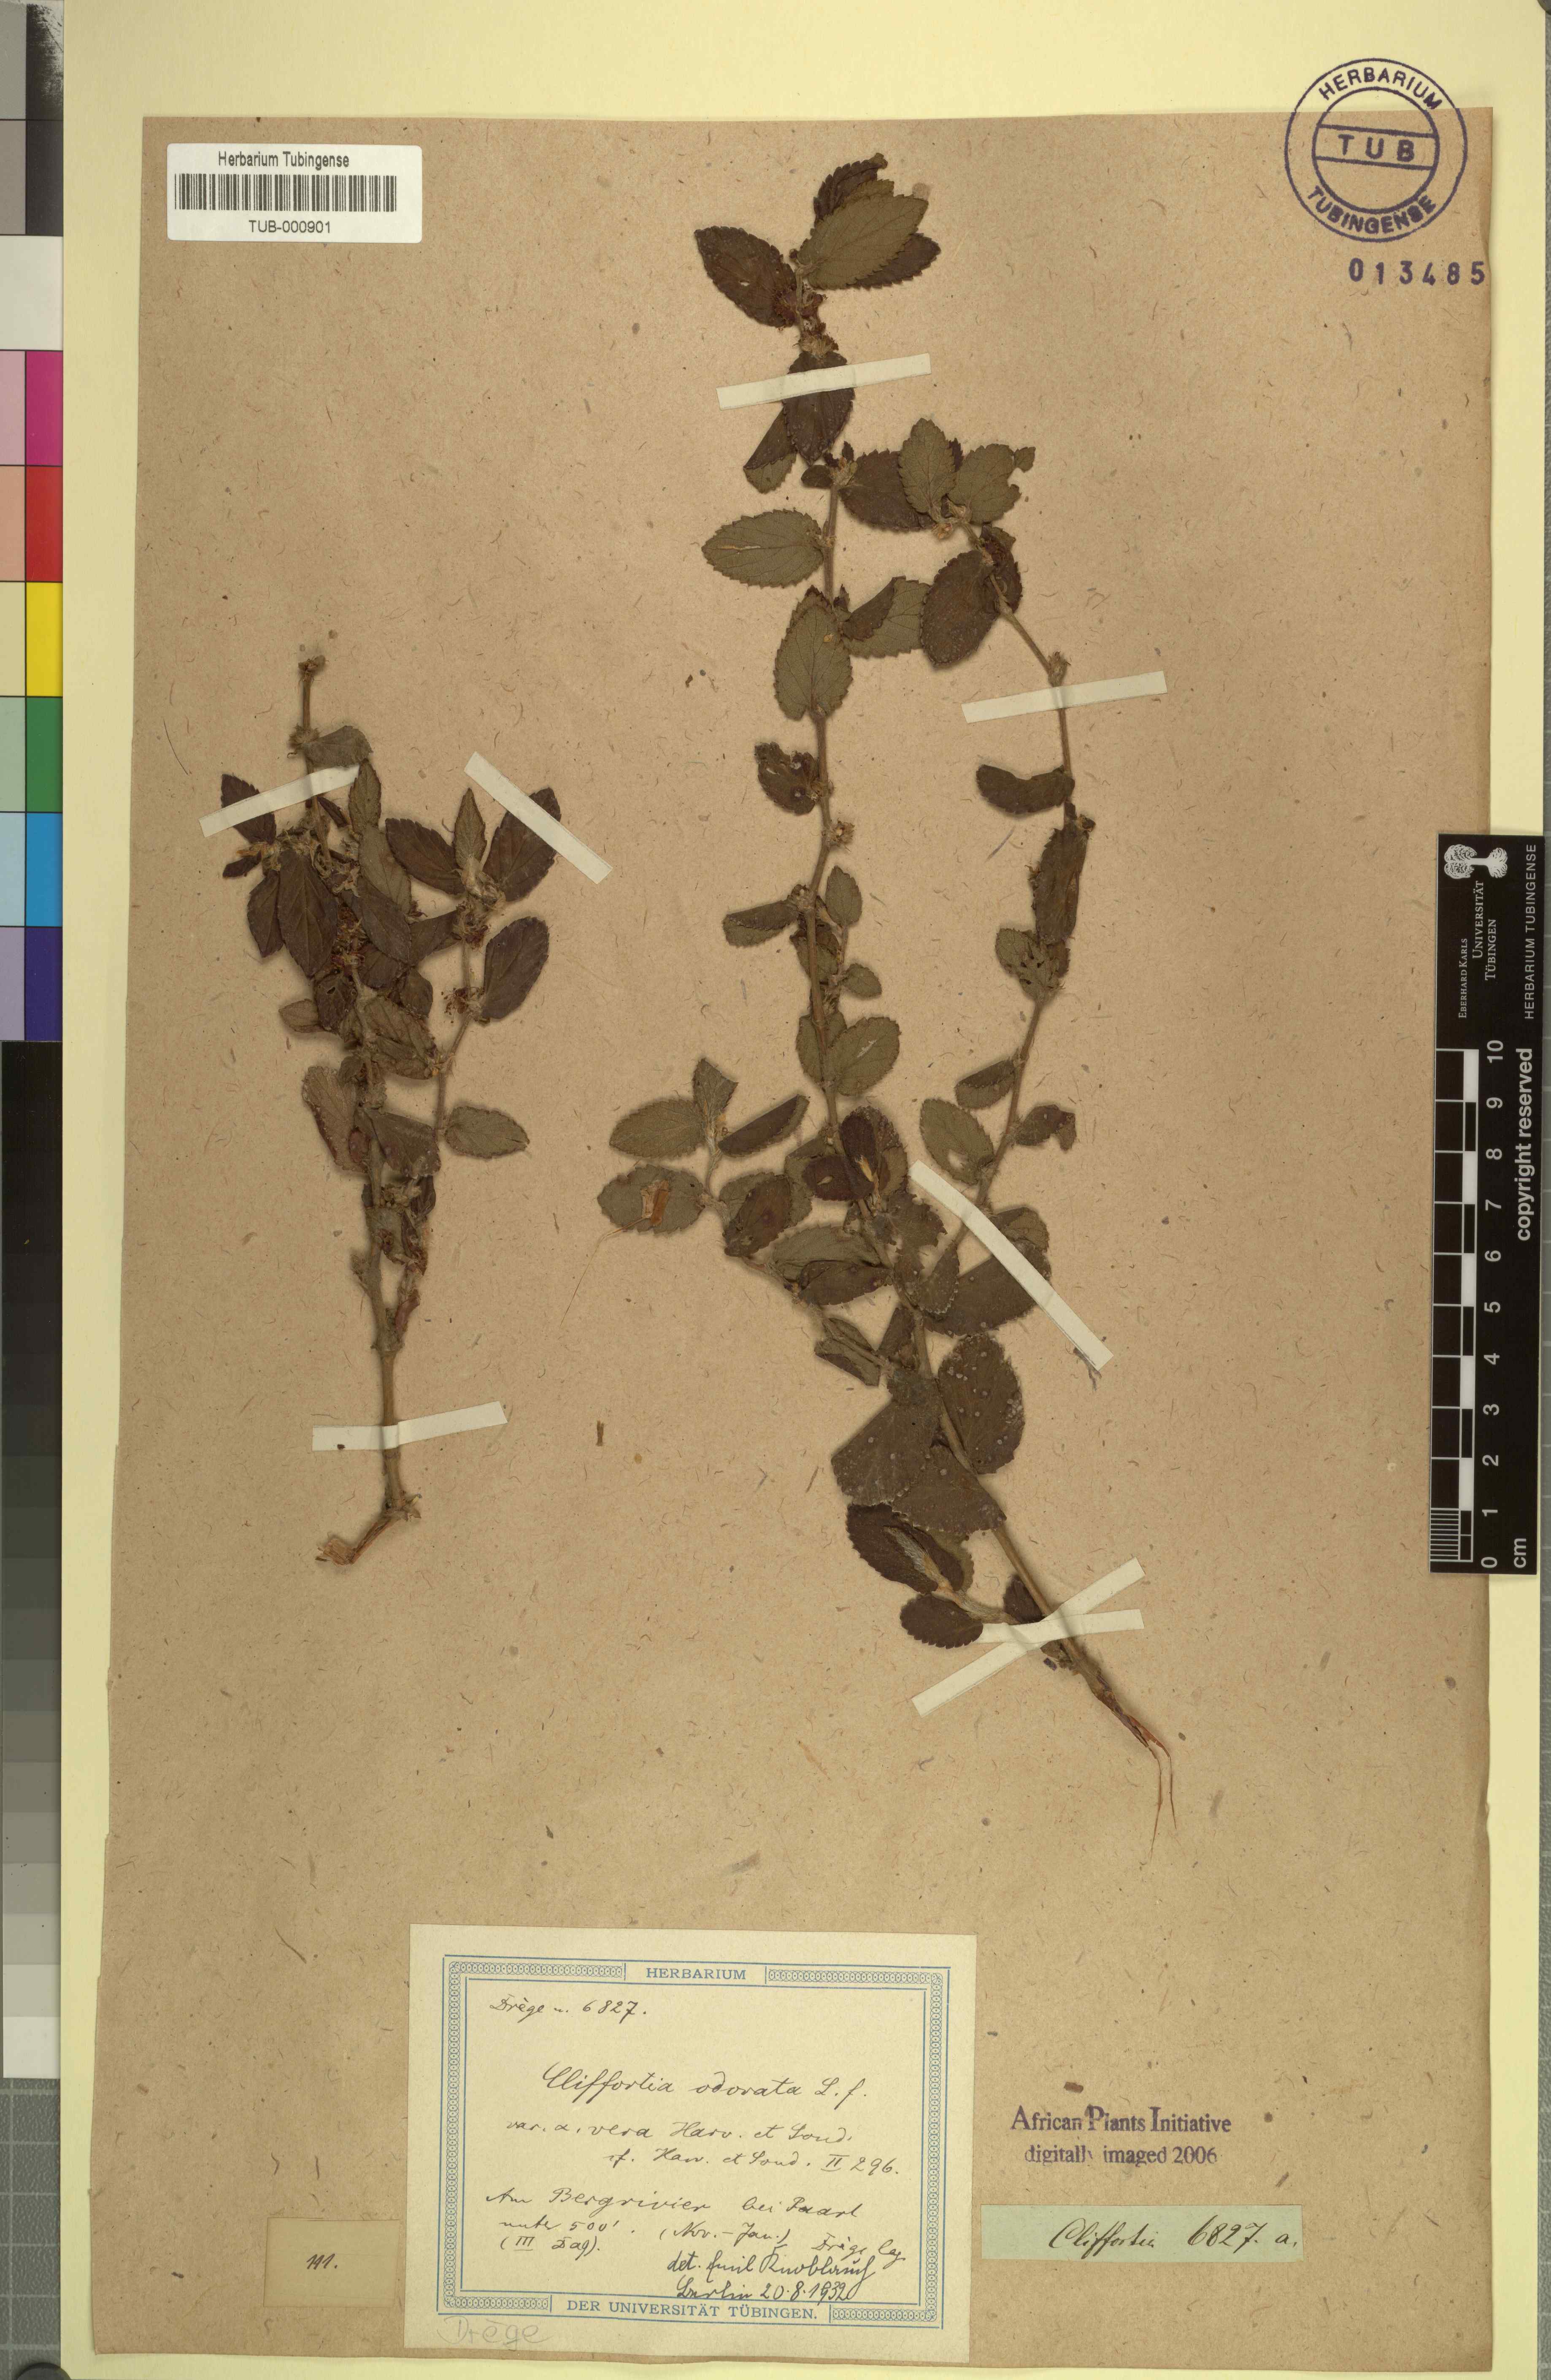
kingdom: Plantae
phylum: Tracheophyta
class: Magnoliopsida
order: Rosales
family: Rosaceae
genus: Cliffortia
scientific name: Cliffortia odorata
